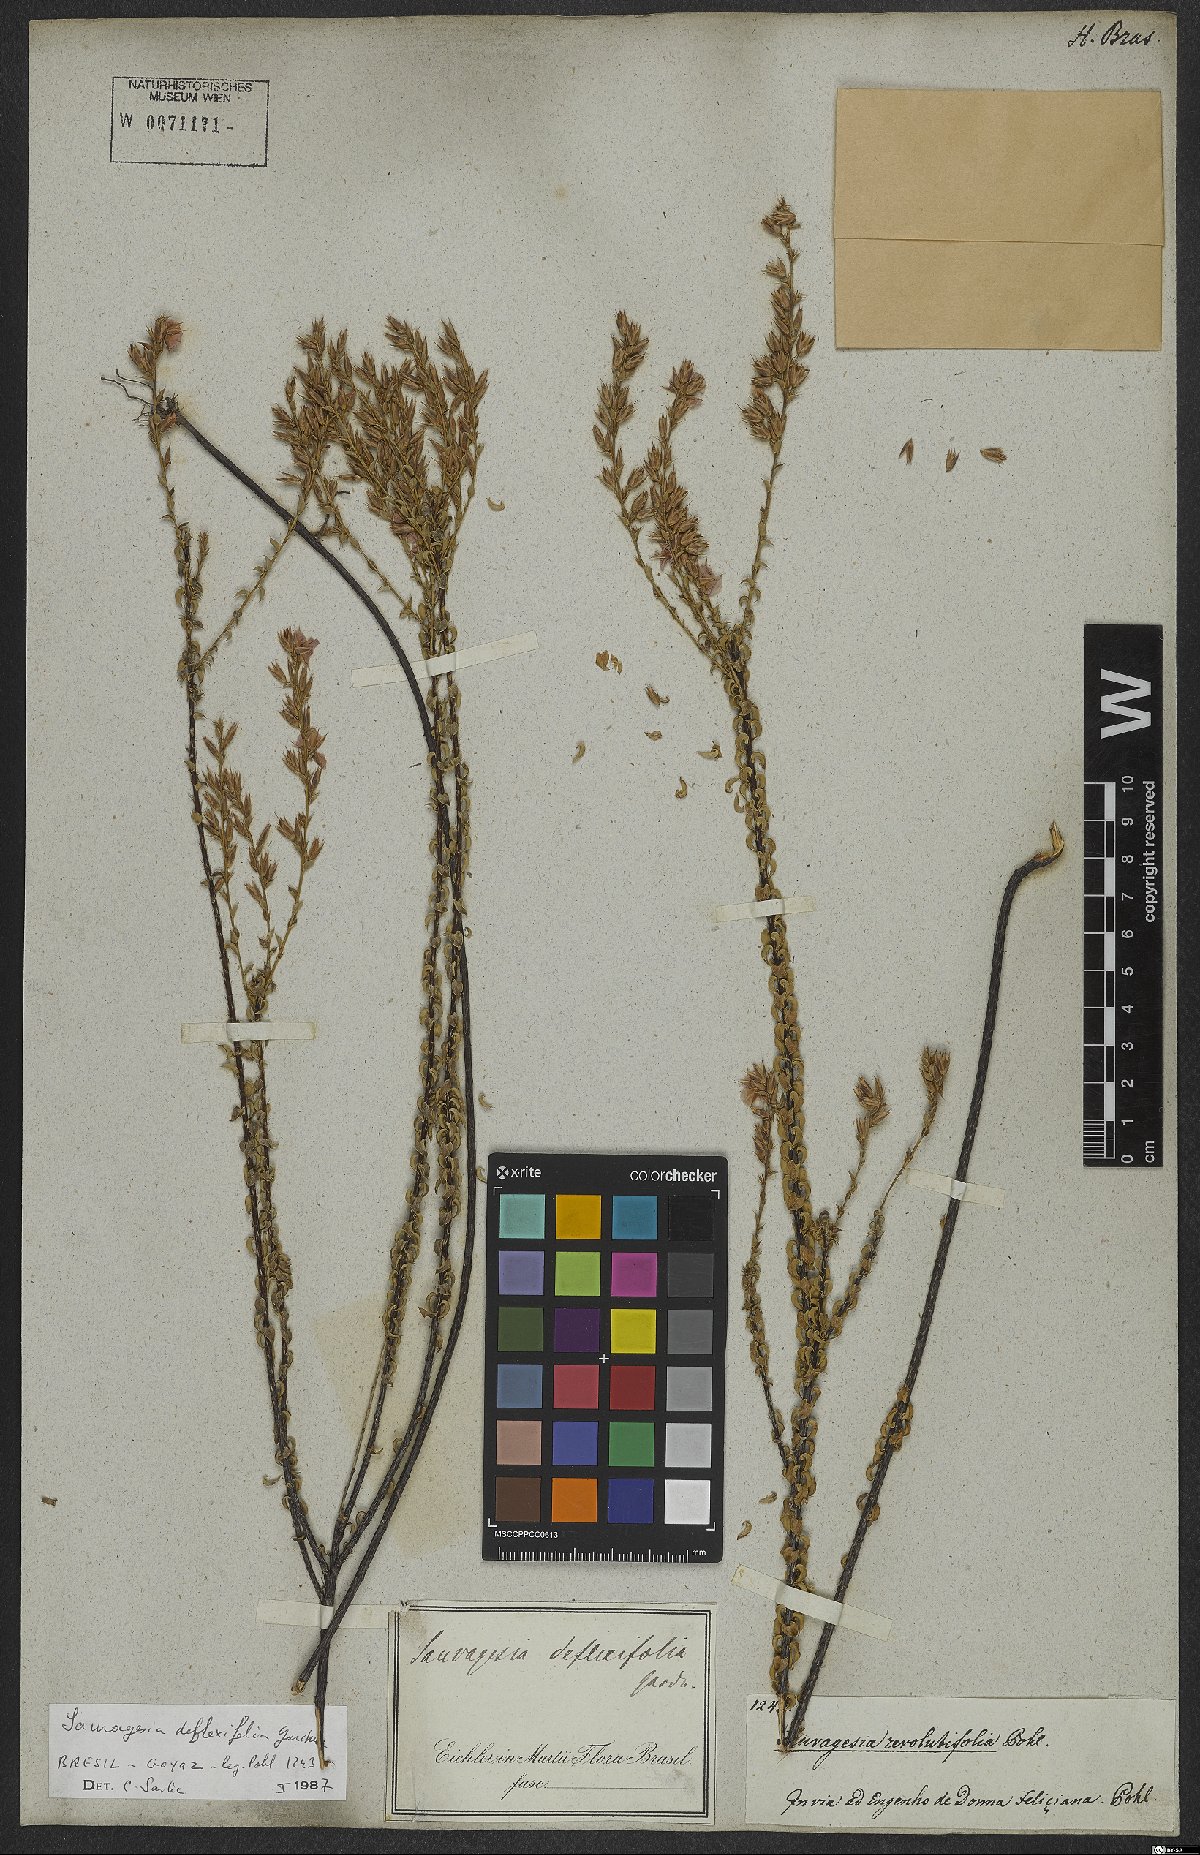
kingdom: Plantae
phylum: Tracheophyta
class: Magnoliopsida
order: Malpighiales
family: Ochnaceae
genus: Sauvagesia
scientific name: Sauvagesia deflexifolia
